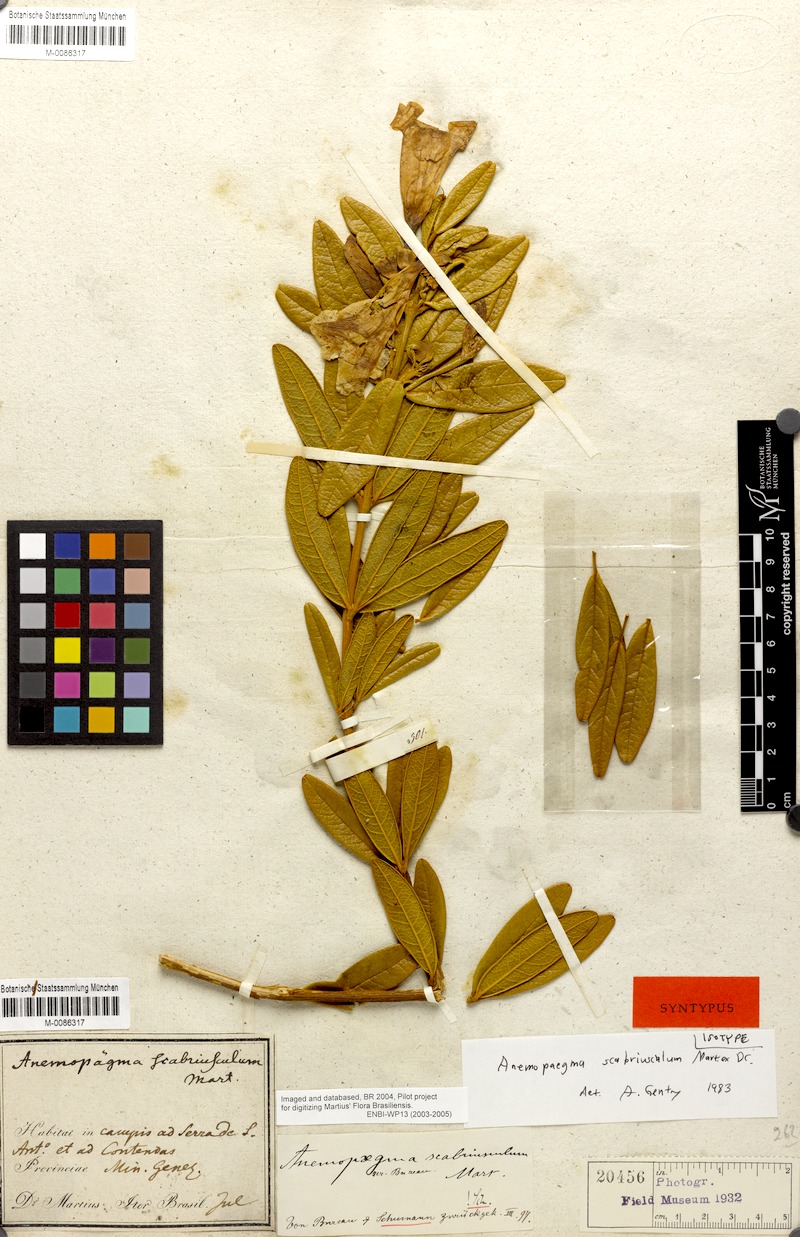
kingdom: Plantae
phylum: Tracheophyta
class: Magnoliopsida
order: Lamiales
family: Bignoniaceae
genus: Anemopaegma
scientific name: Anemopaegma scabriusculum
